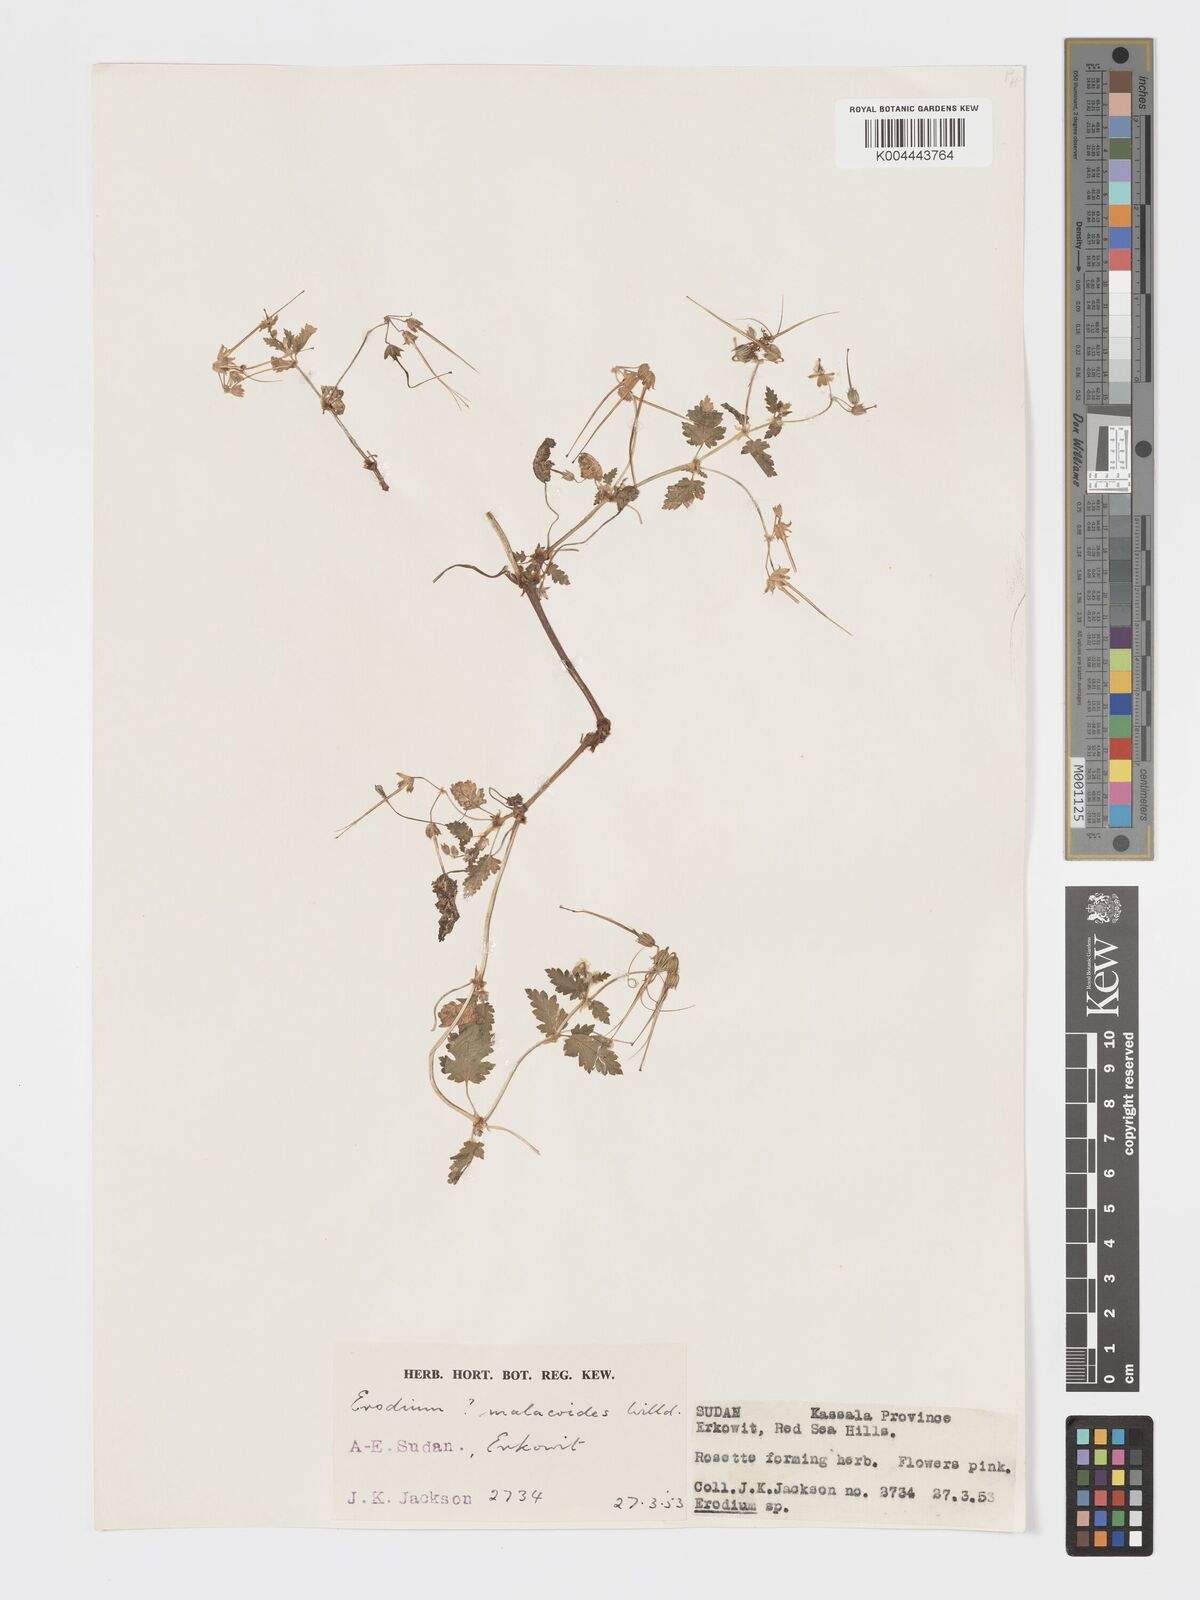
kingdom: Plantae
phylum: Tracheophyta
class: Magnoliopsida
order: Geraniales
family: Geraniaceae
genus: Erodium
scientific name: Erodium malacoides
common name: Soft stork's-bill
